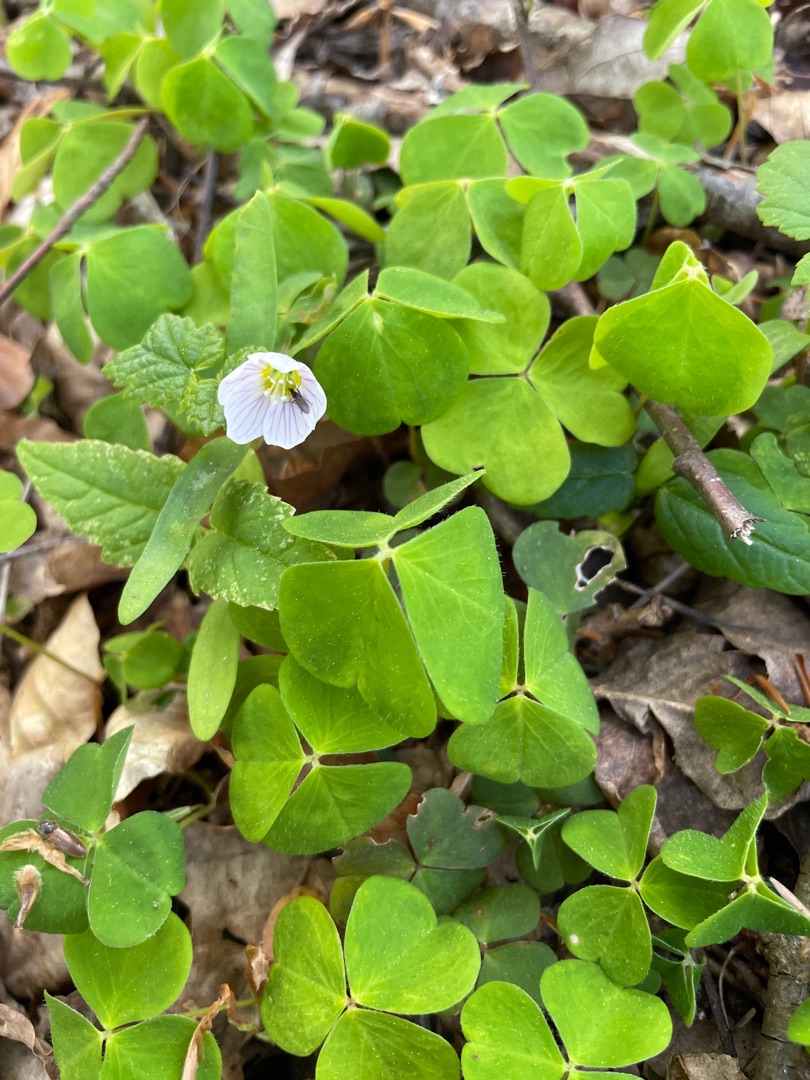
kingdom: Plantae
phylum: Tracheophyta
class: Magnoliopsida
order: Oxalidales
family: Oxalidaceae
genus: Oxalis
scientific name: Oxalis acetosella
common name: Skovsyre
